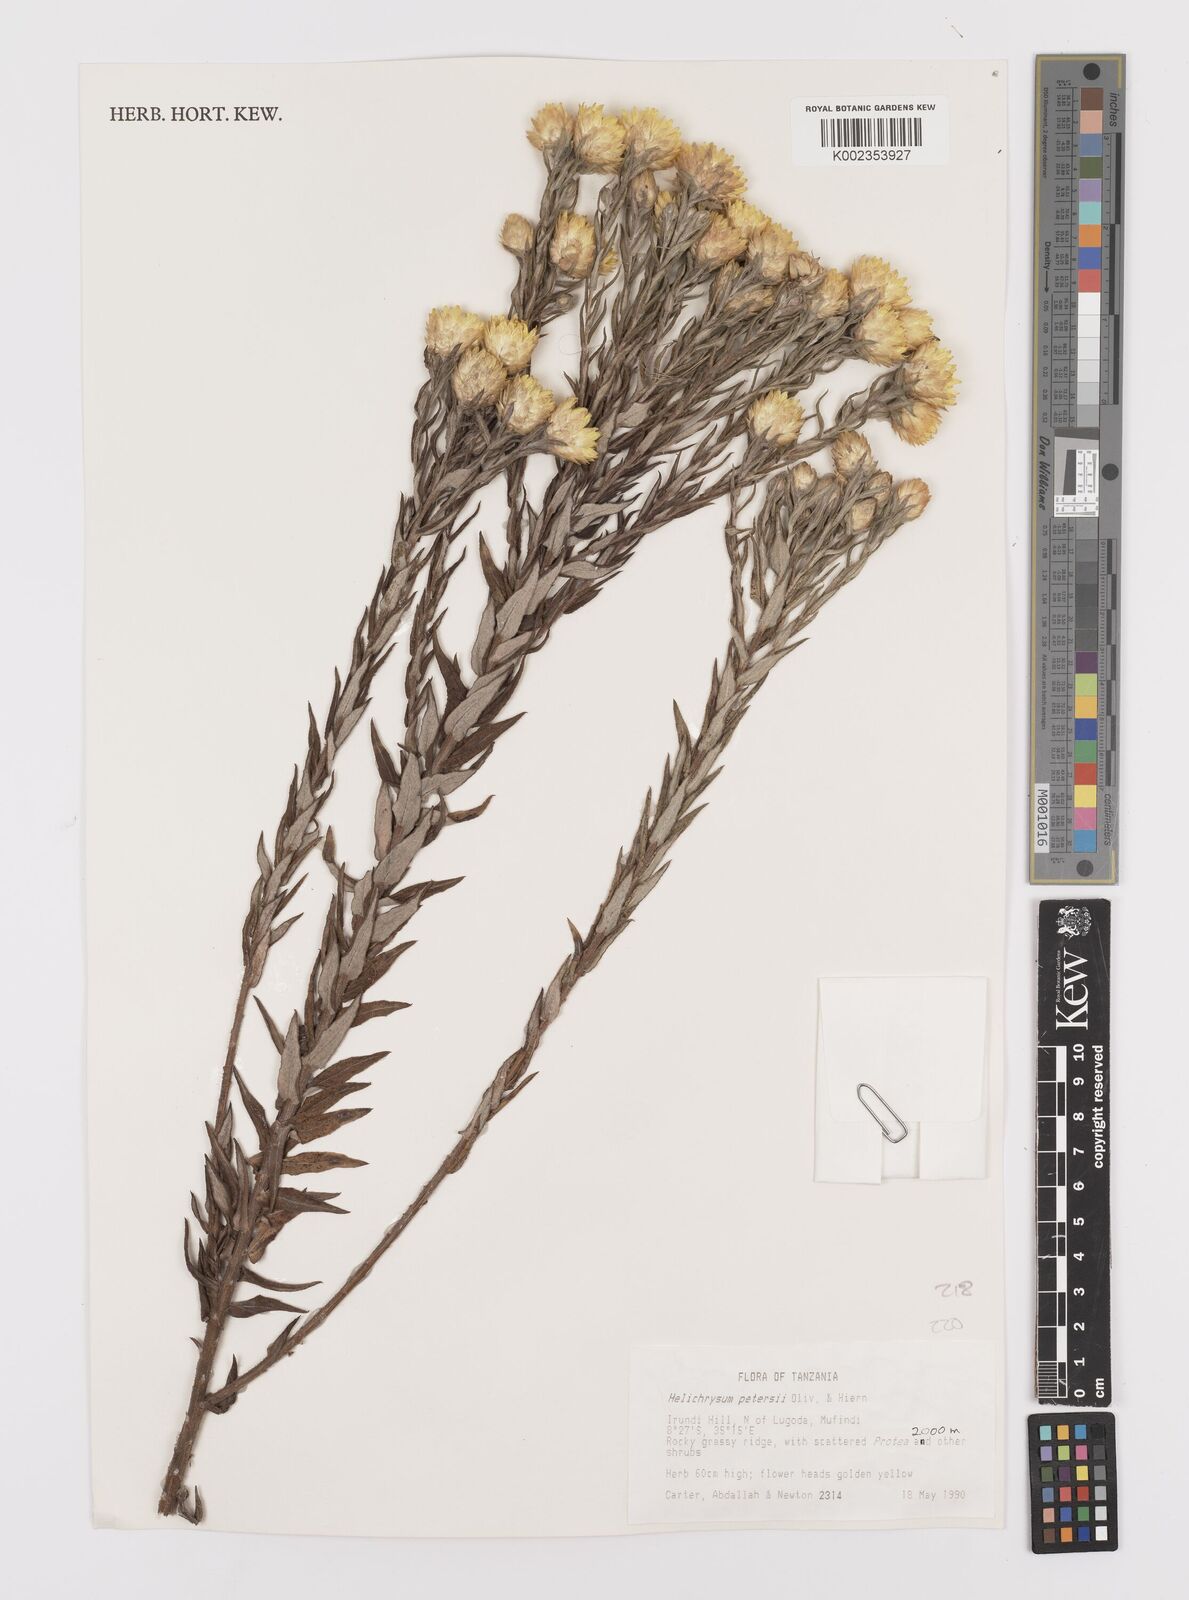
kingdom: Plantae
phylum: Tracheophyta
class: Magnoliopsida
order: Asterales
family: Asteraceae
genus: Helichrysum
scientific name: Helichrysum kirkii
